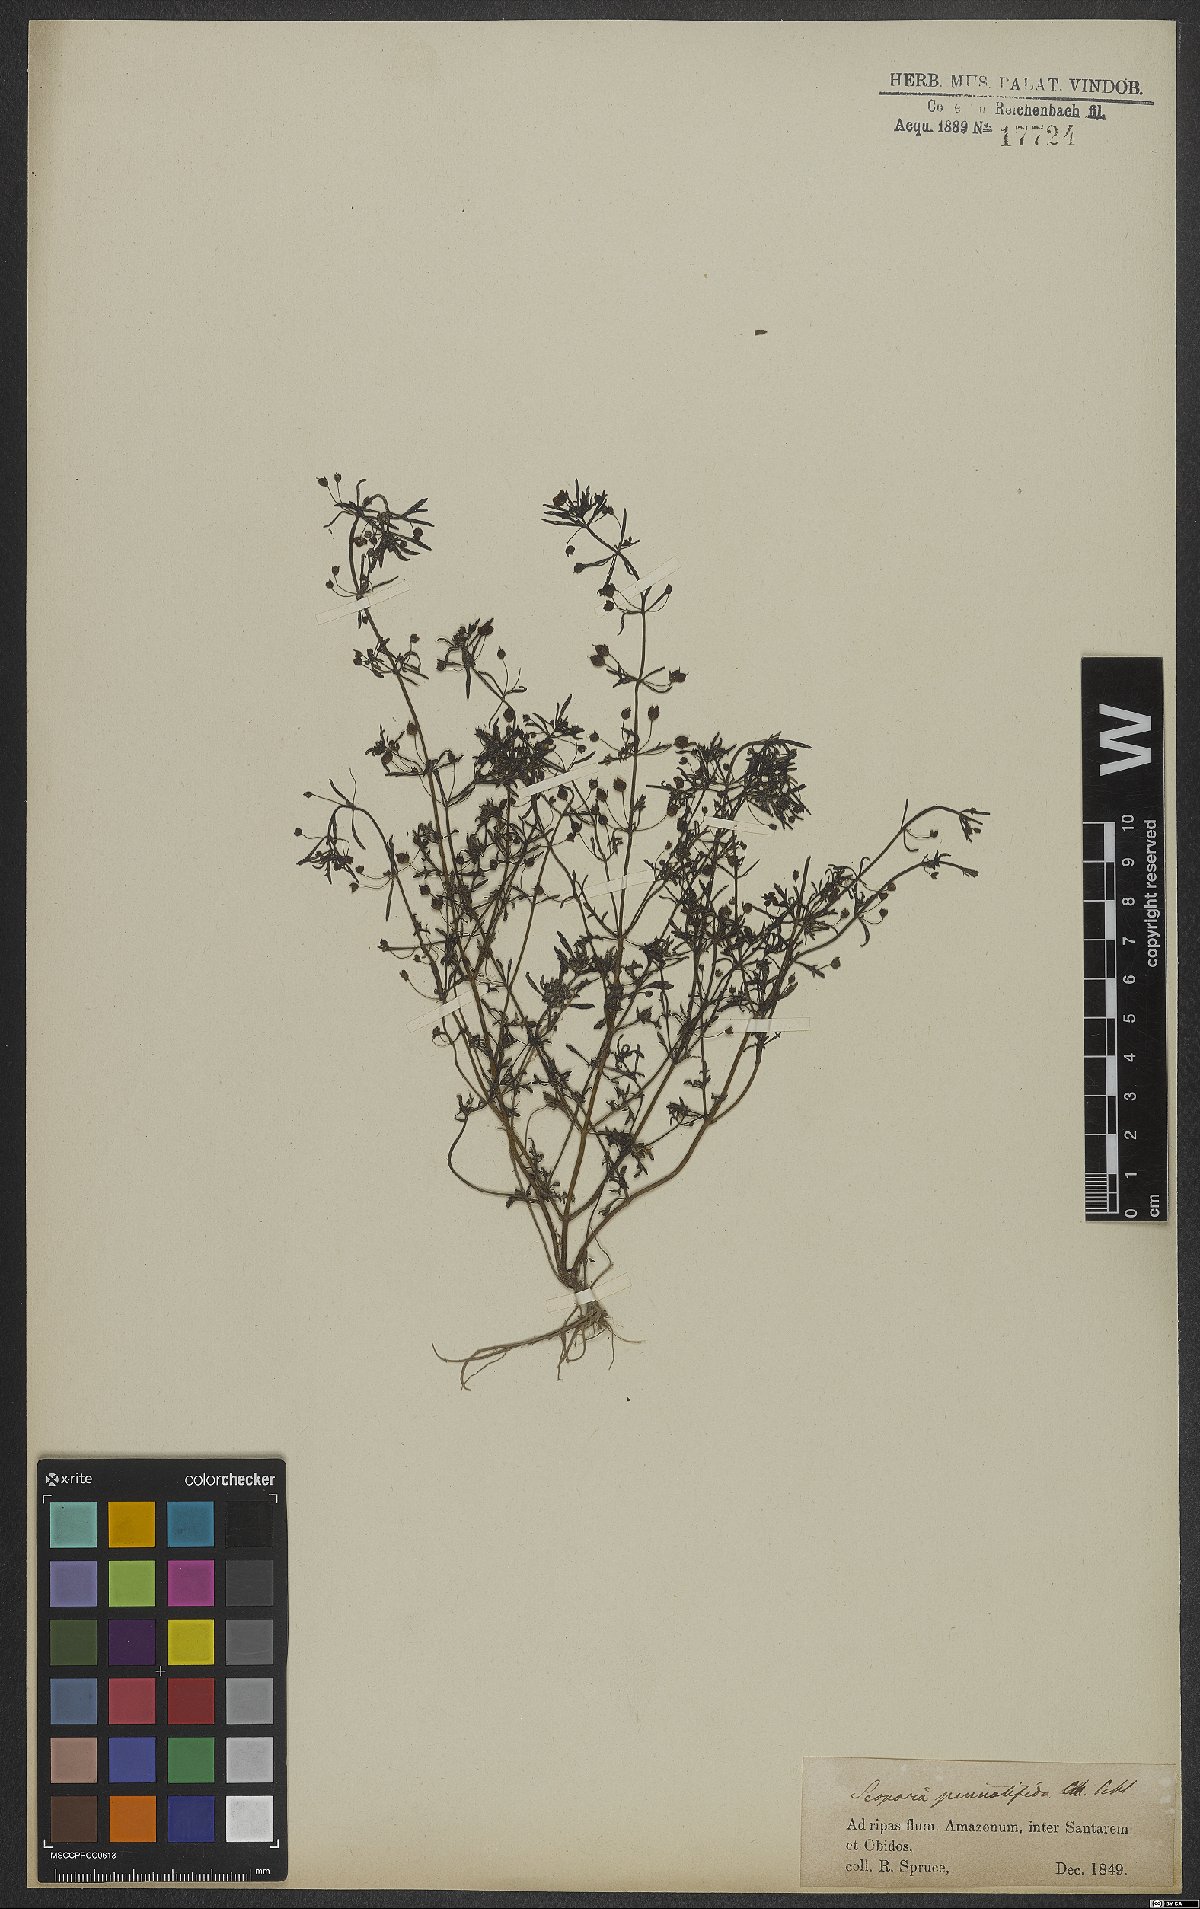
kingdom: Plantae
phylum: Tracheophyta
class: Magnoliopsida
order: Lamiales
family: Plantaginaceae
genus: Scoparia
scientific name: Scoparia pinnatifida
